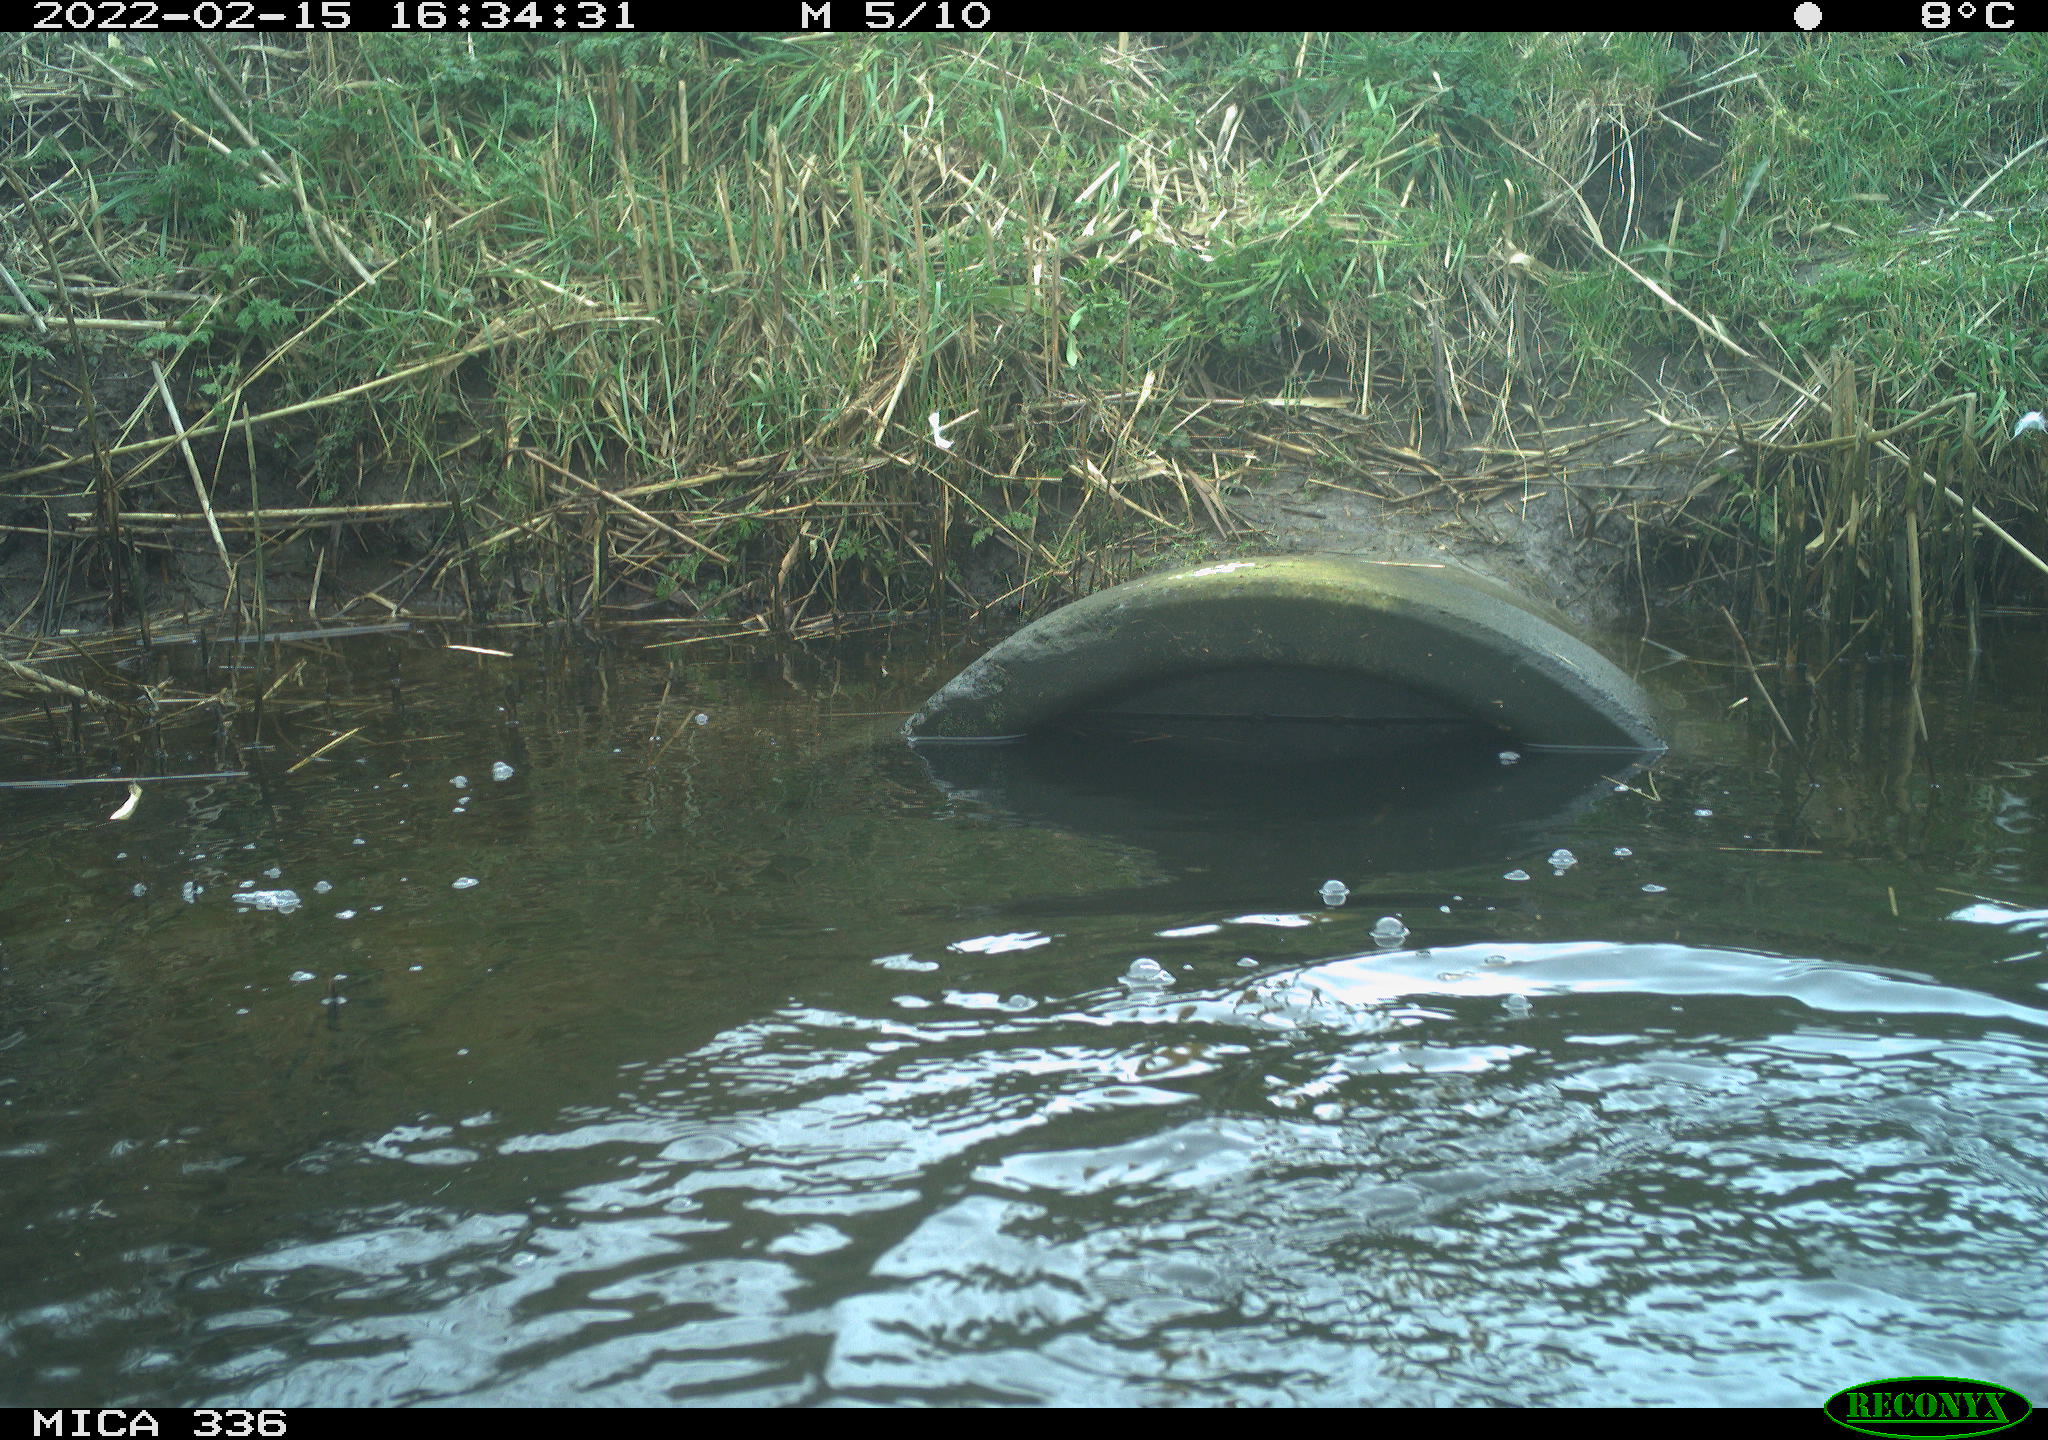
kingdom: Animalia
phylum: Chordata
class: Aves
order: Suliformes
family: Phalacrocoracidae
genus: Phalacrocorax
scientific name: Phalacrocorax carbo
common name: Great cormorant
